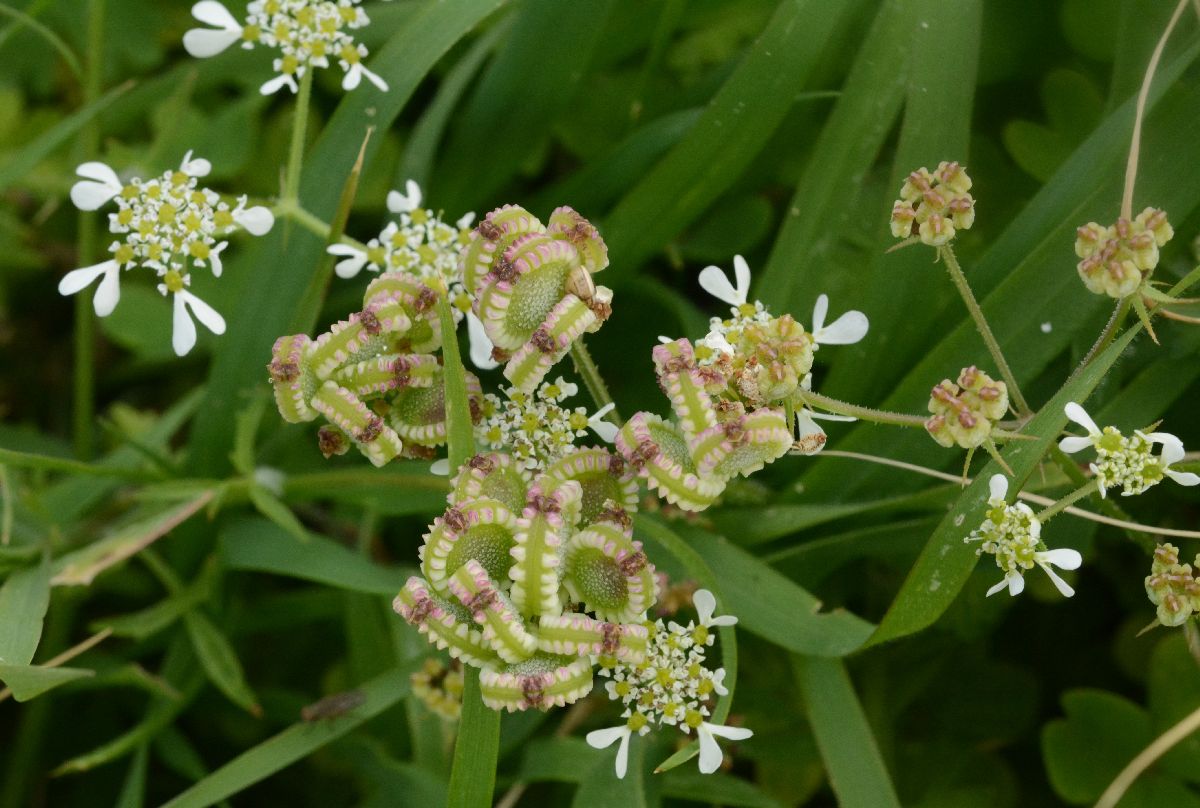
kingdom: Plantae
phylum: Tracheophyta
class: Magnoliopsida
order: Apiales
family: Apiaceae
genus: Tordylium
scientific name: Tordylium apulum
